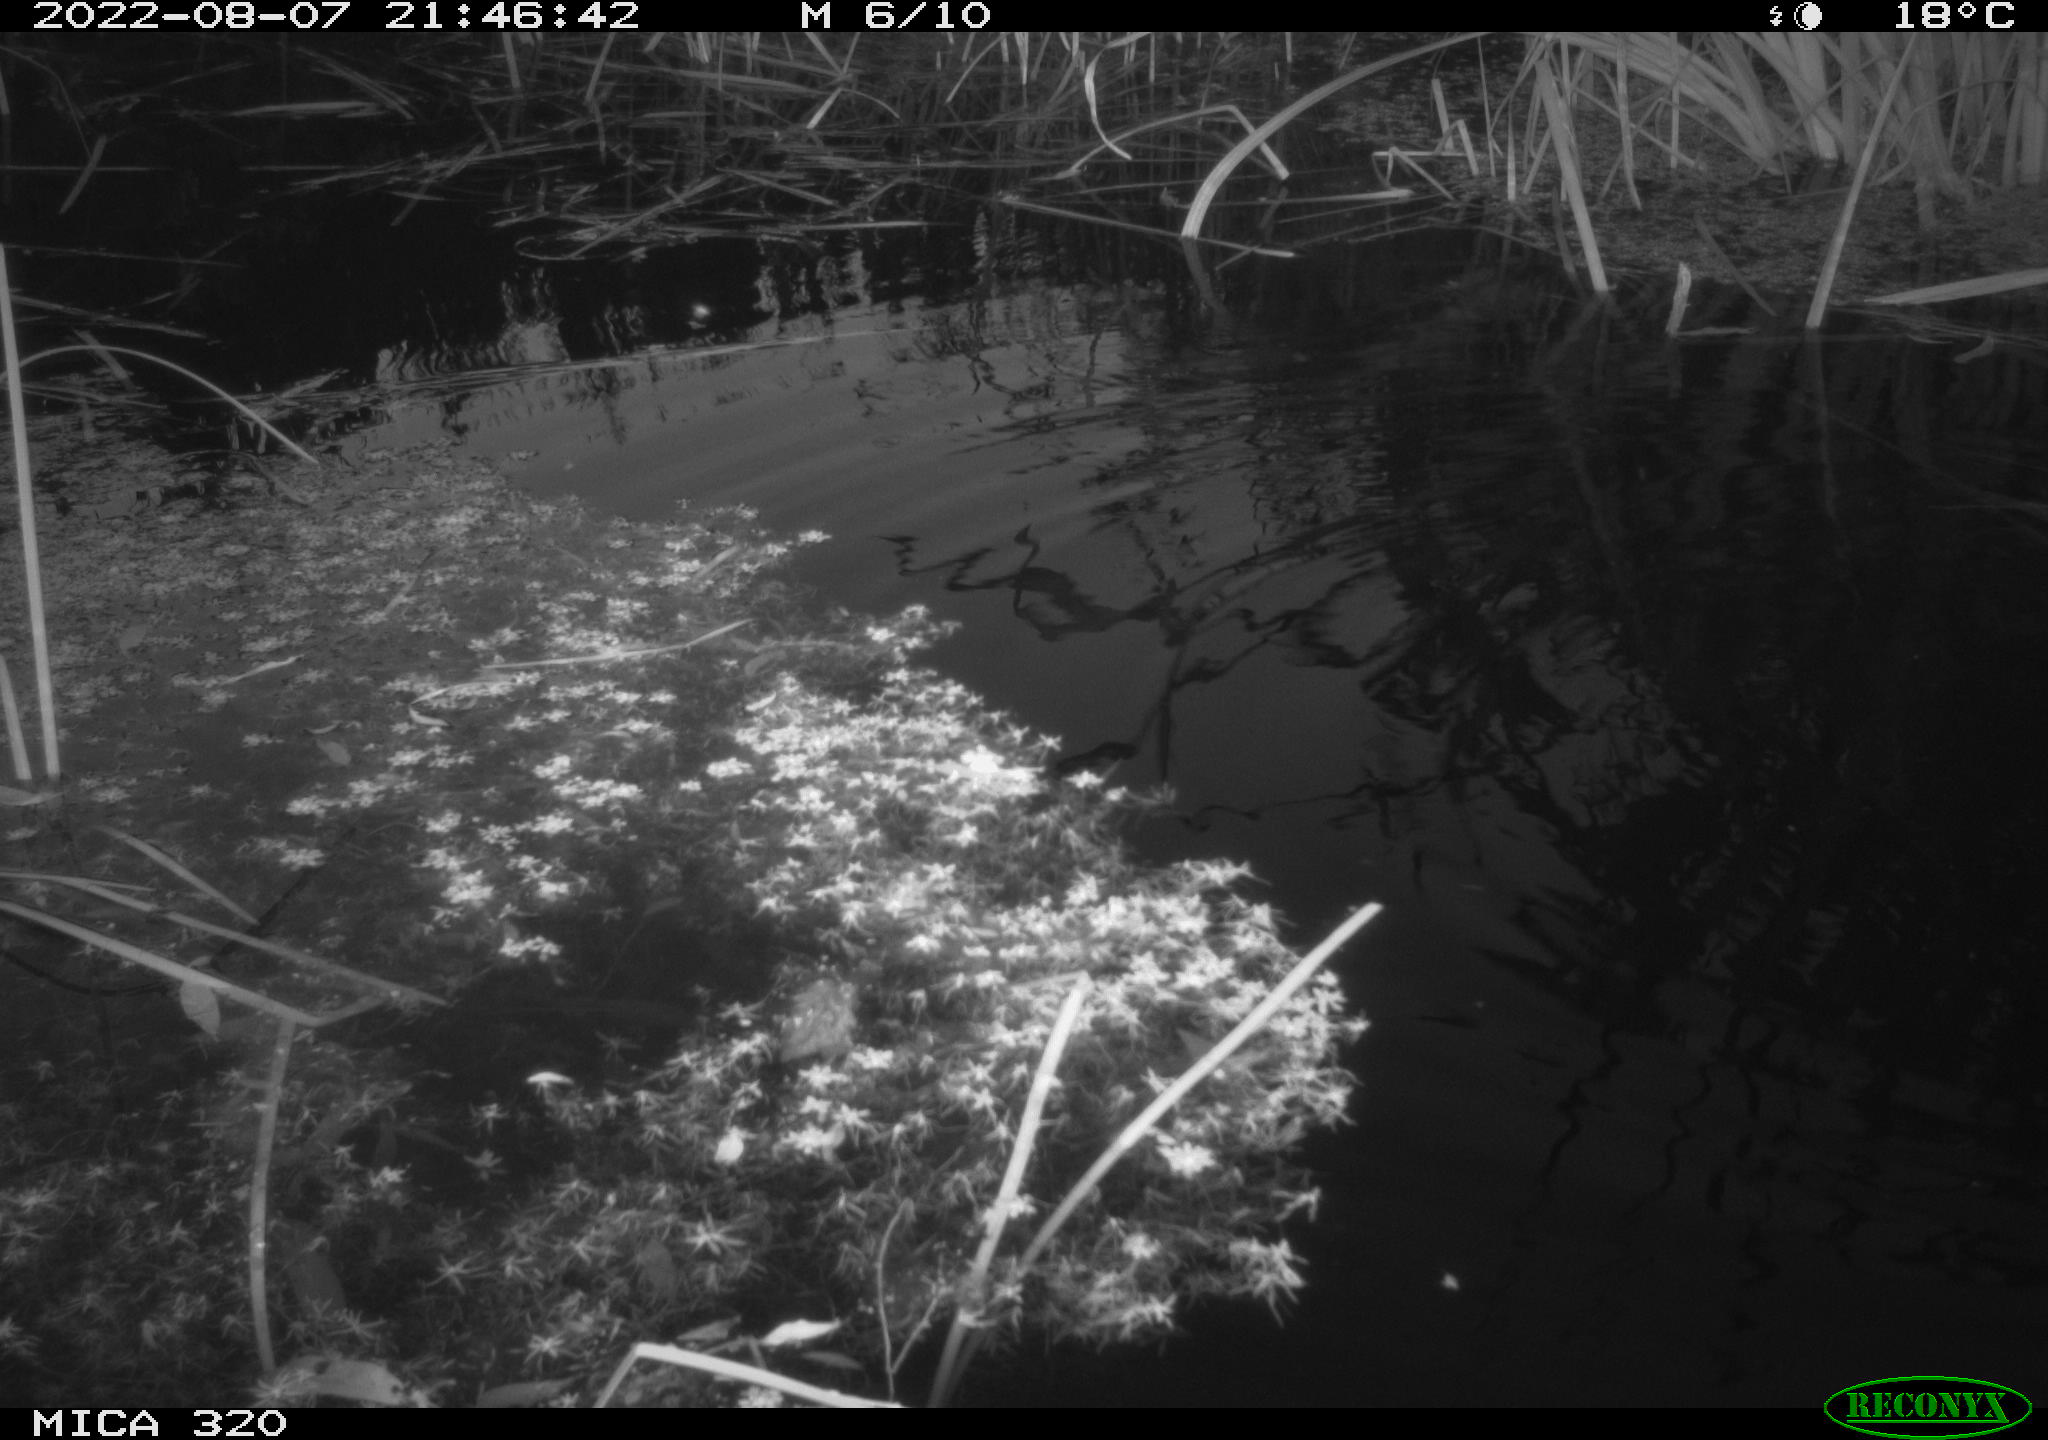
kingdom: Animalia
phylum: Chordata
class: Aves
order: Anseriformes
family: Anatidae
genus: Anas
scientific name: Anas platyrhynchos
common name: Mallard
